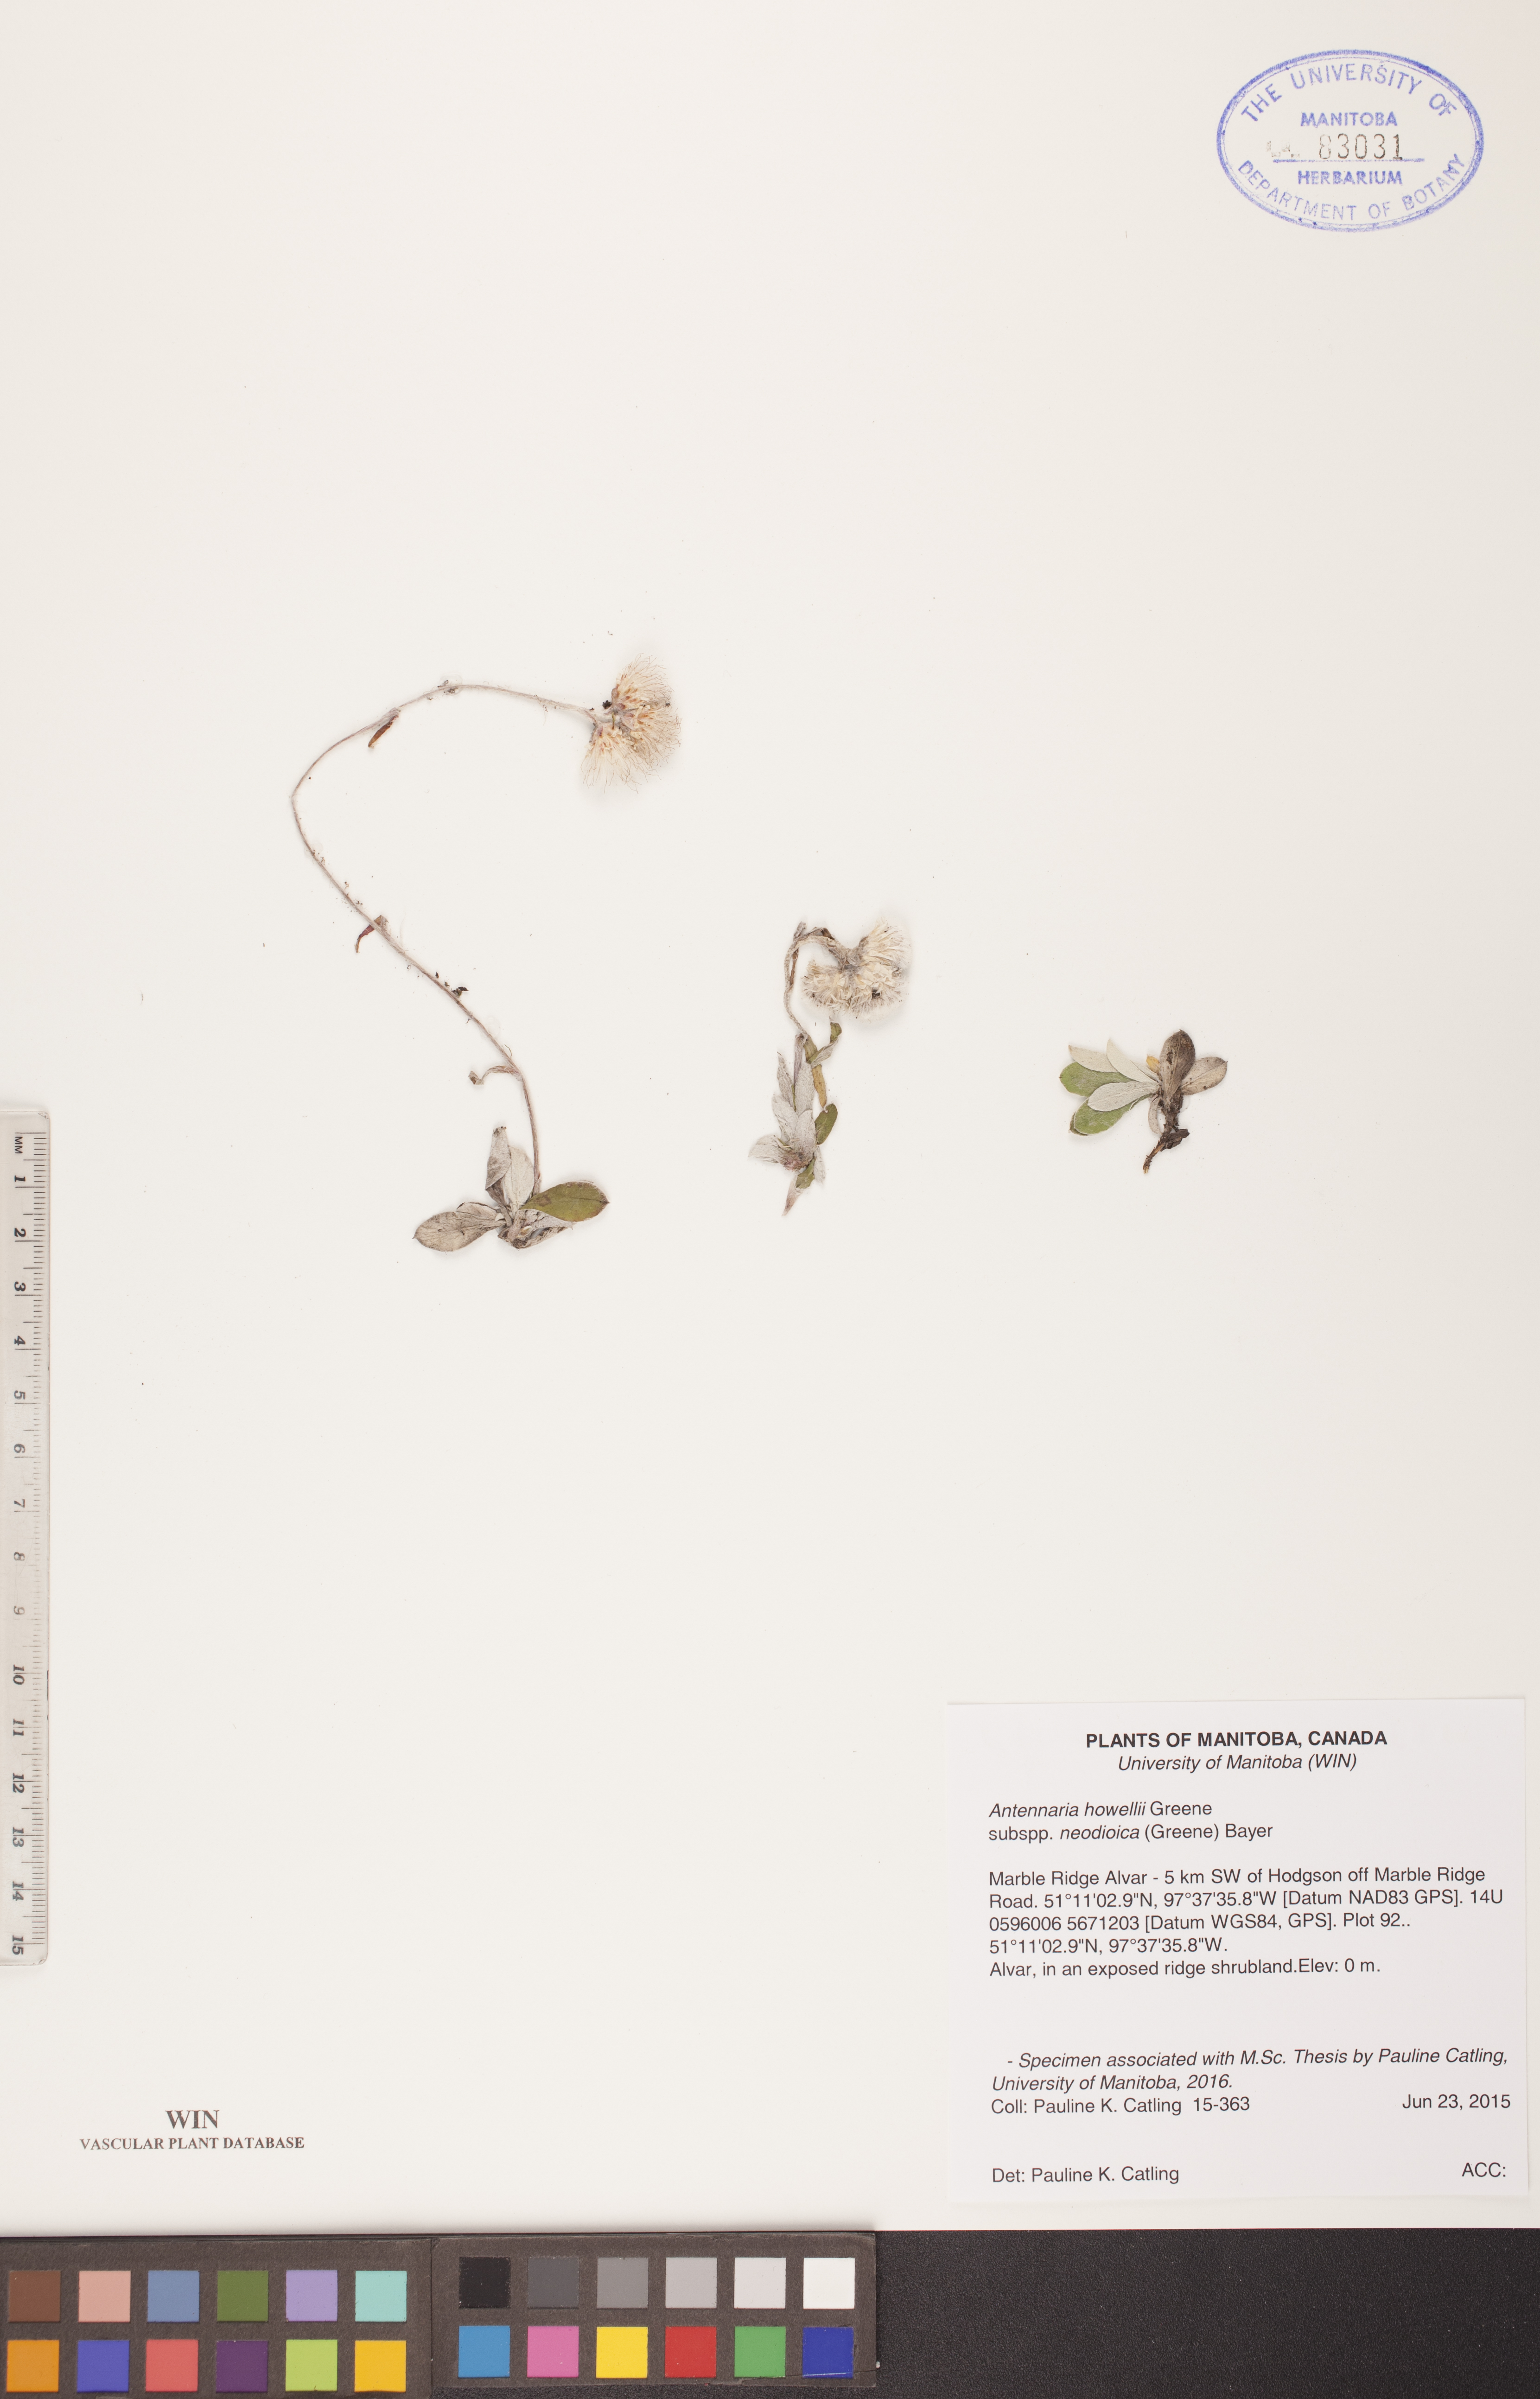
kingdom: Plantae
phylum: Tracheophyta
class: Magnoliopsida
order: Asterales
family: Asteraceae
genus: Antennaria
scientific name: Antennaria howellii
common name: Howell's pussytoes
